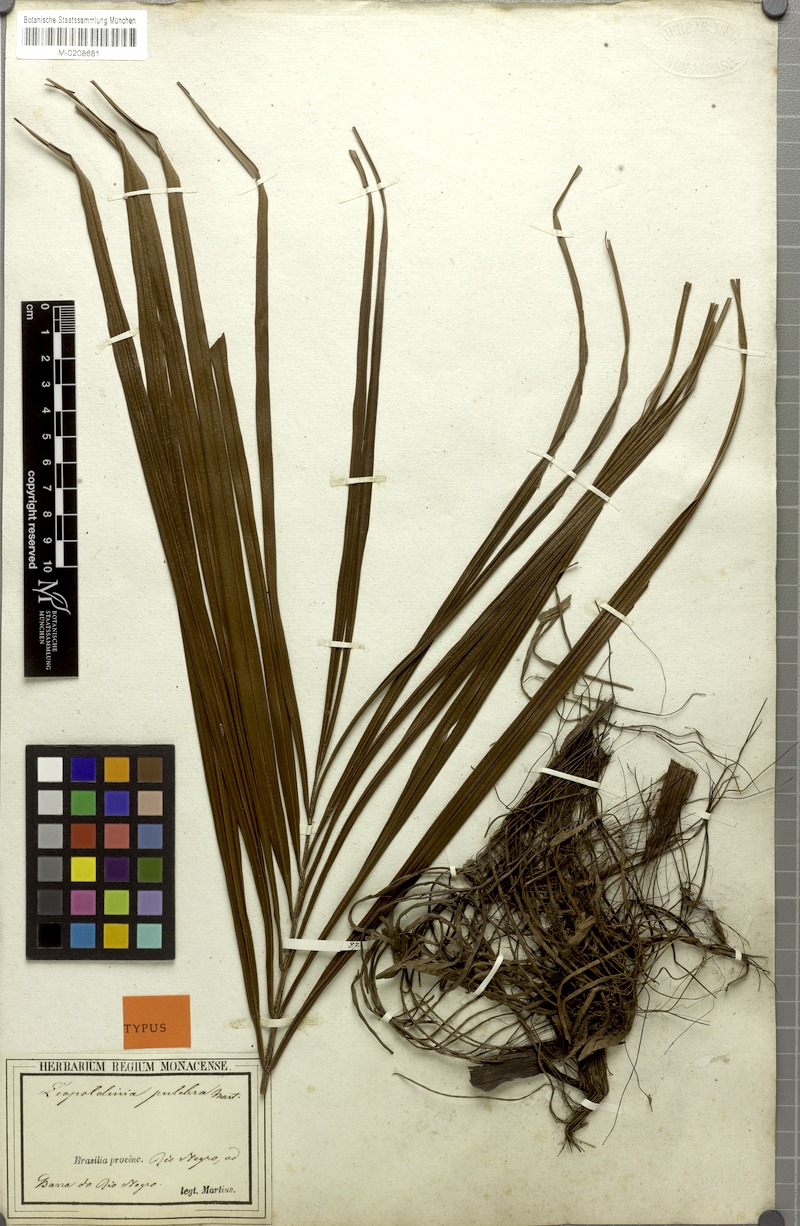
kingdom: Plantae
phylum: Tracheophyta
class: Liliopsida
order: Arecales
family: Arecaceae
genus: Leopoldinia
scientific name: Leopoldinia pulchra
